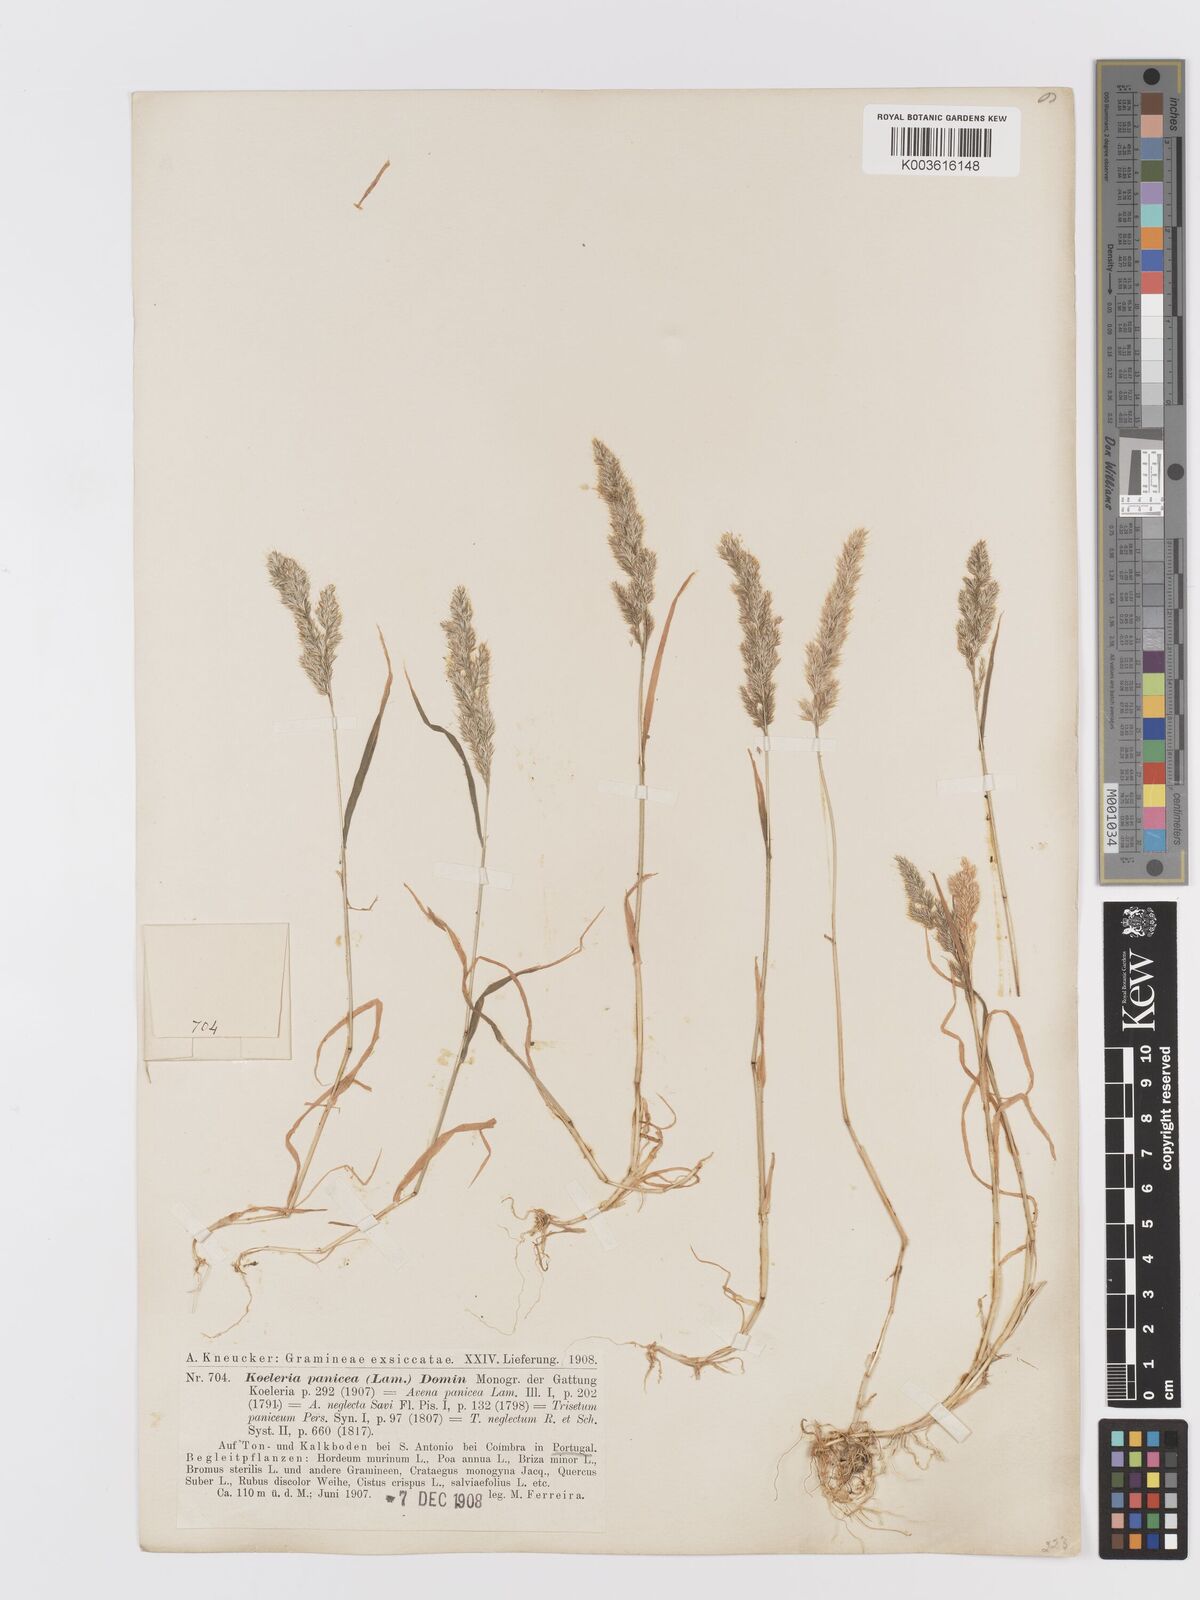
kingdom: Plantae
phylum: Tracheophyta
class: Liliopsida
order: Poales
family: Poaceae
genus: Trisetaria
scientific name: Trisetaria panicea
